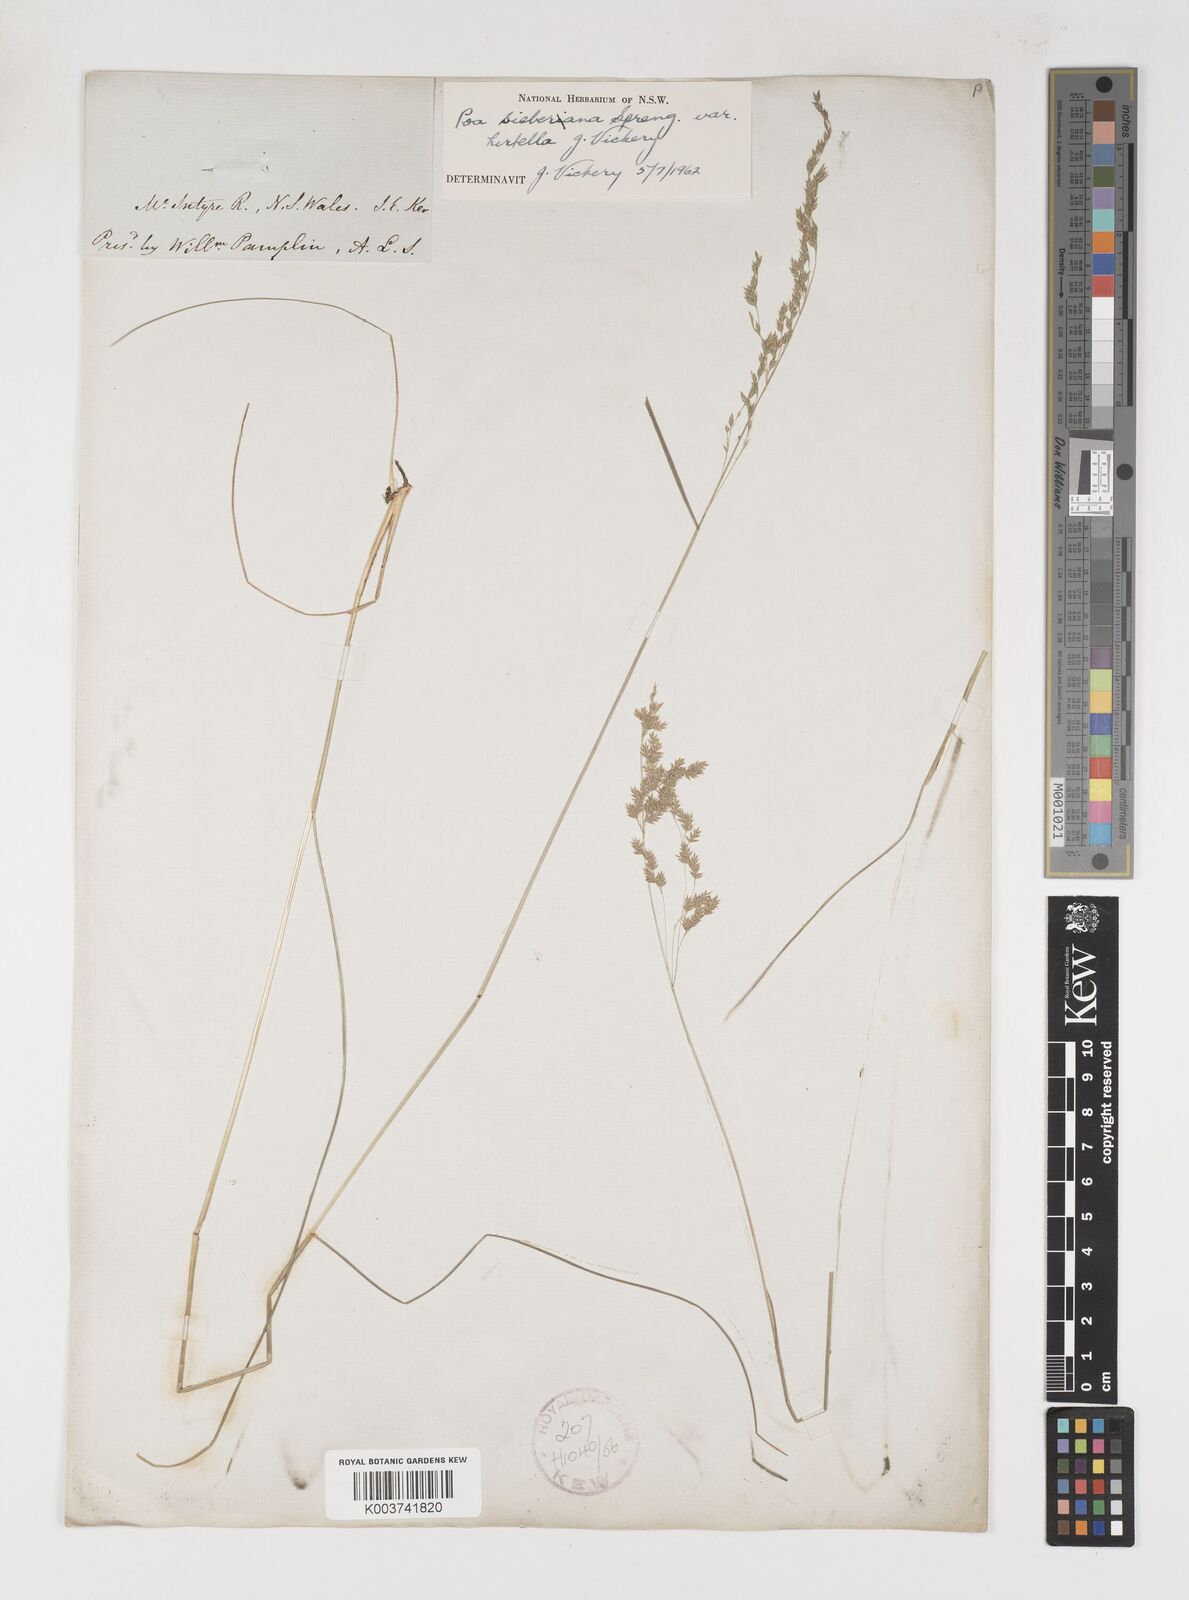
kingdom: Plantae
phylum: Tracheophyta
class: Liliopsida
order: Poales
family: Poaceae
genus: Poa
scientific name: Poa sieberiana
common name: Tussock poa
